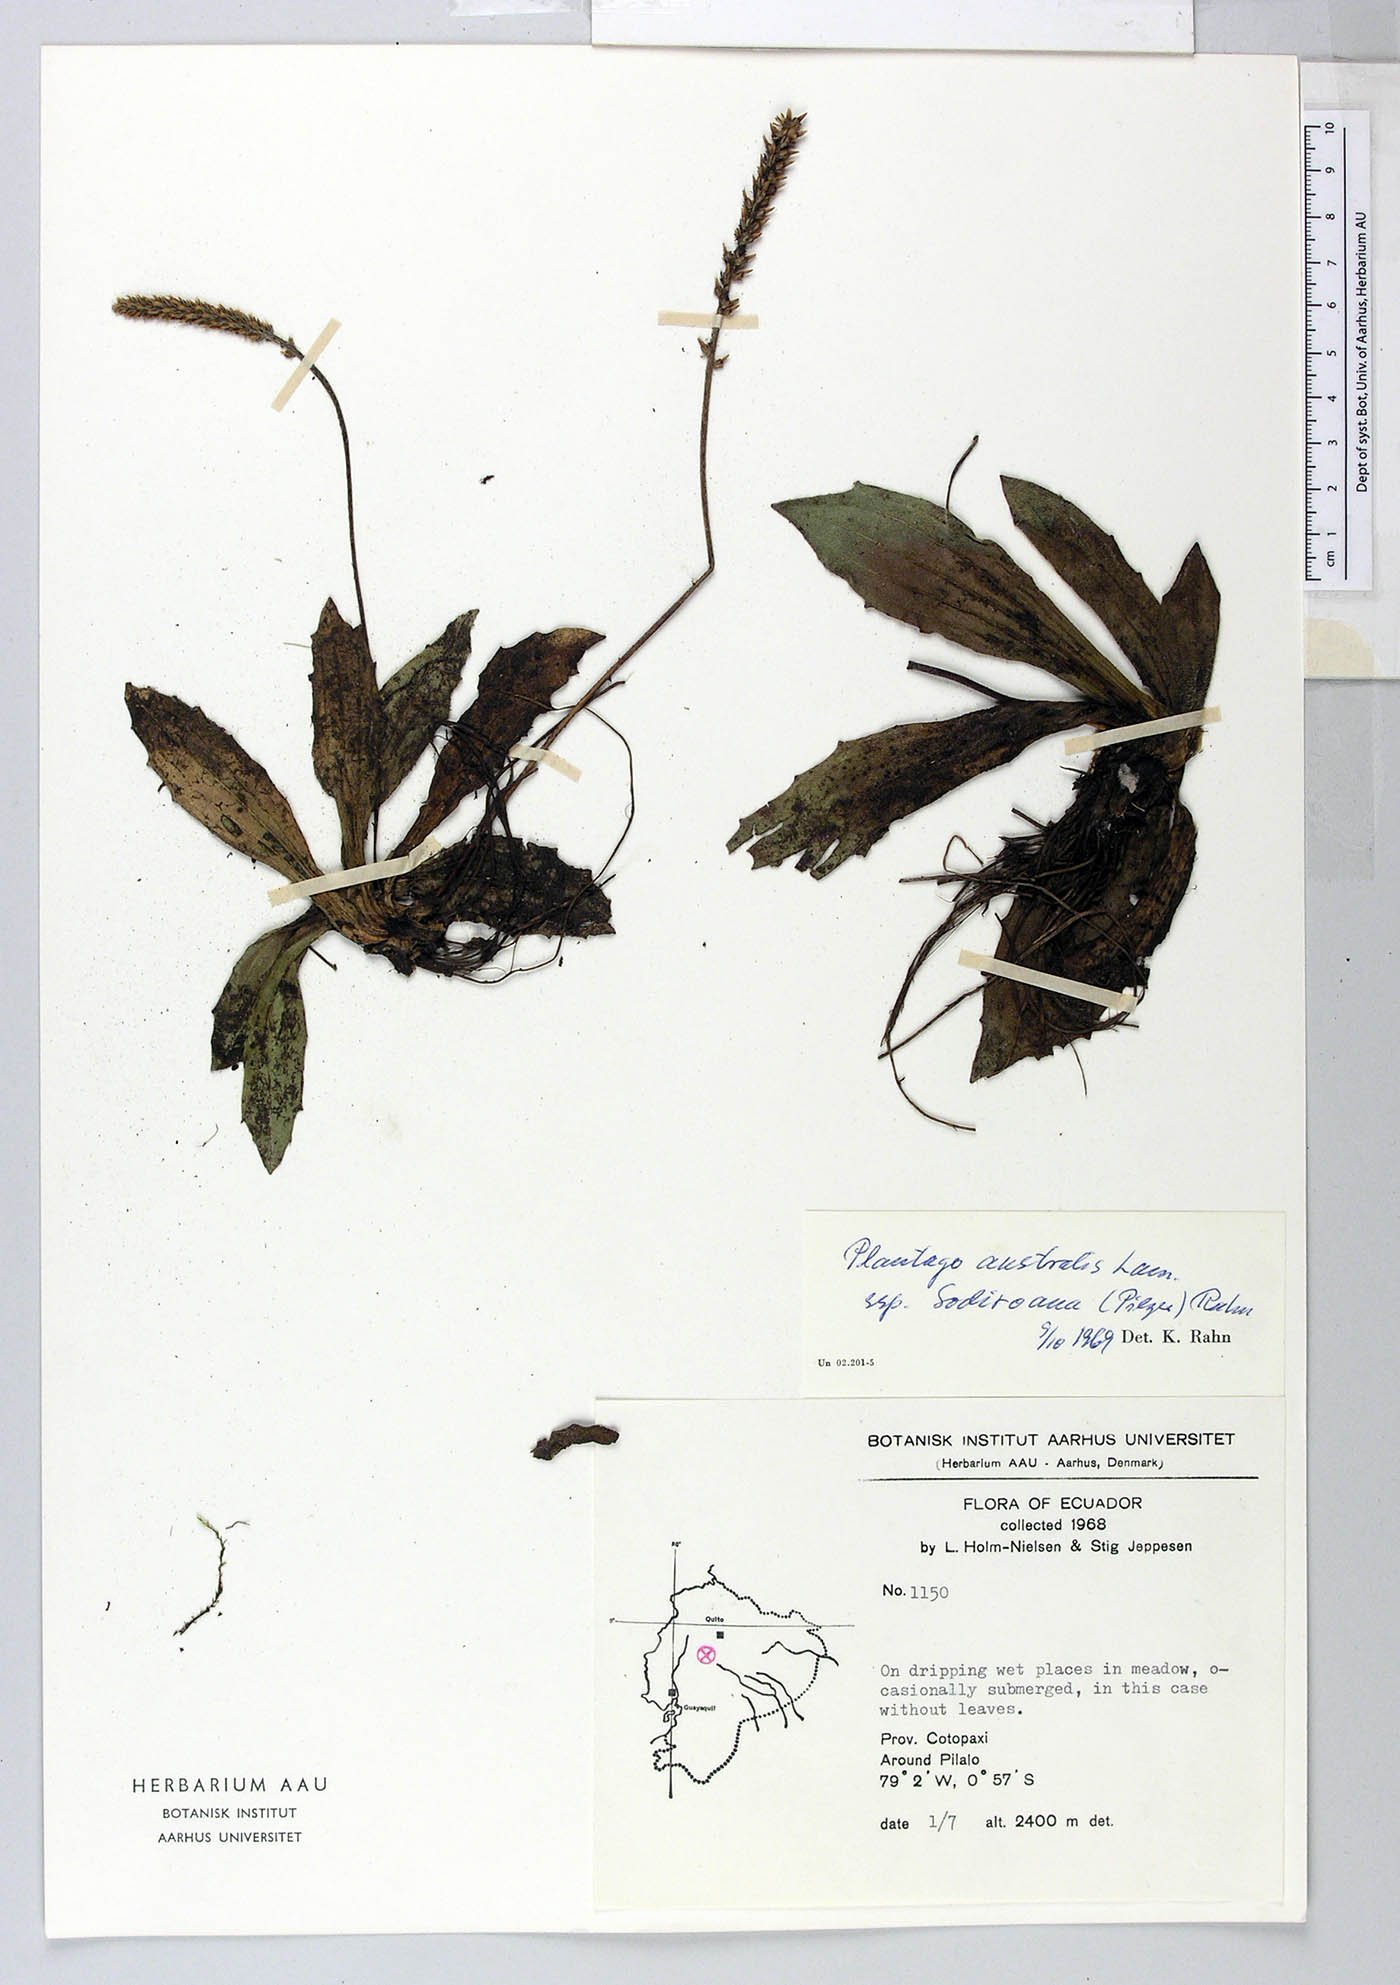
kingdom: Plantae
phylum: Tracheophyta
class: Magnoliopsida
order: Lamiales
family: Plantaginaceae
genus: Plantago
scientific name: Plantago australis
